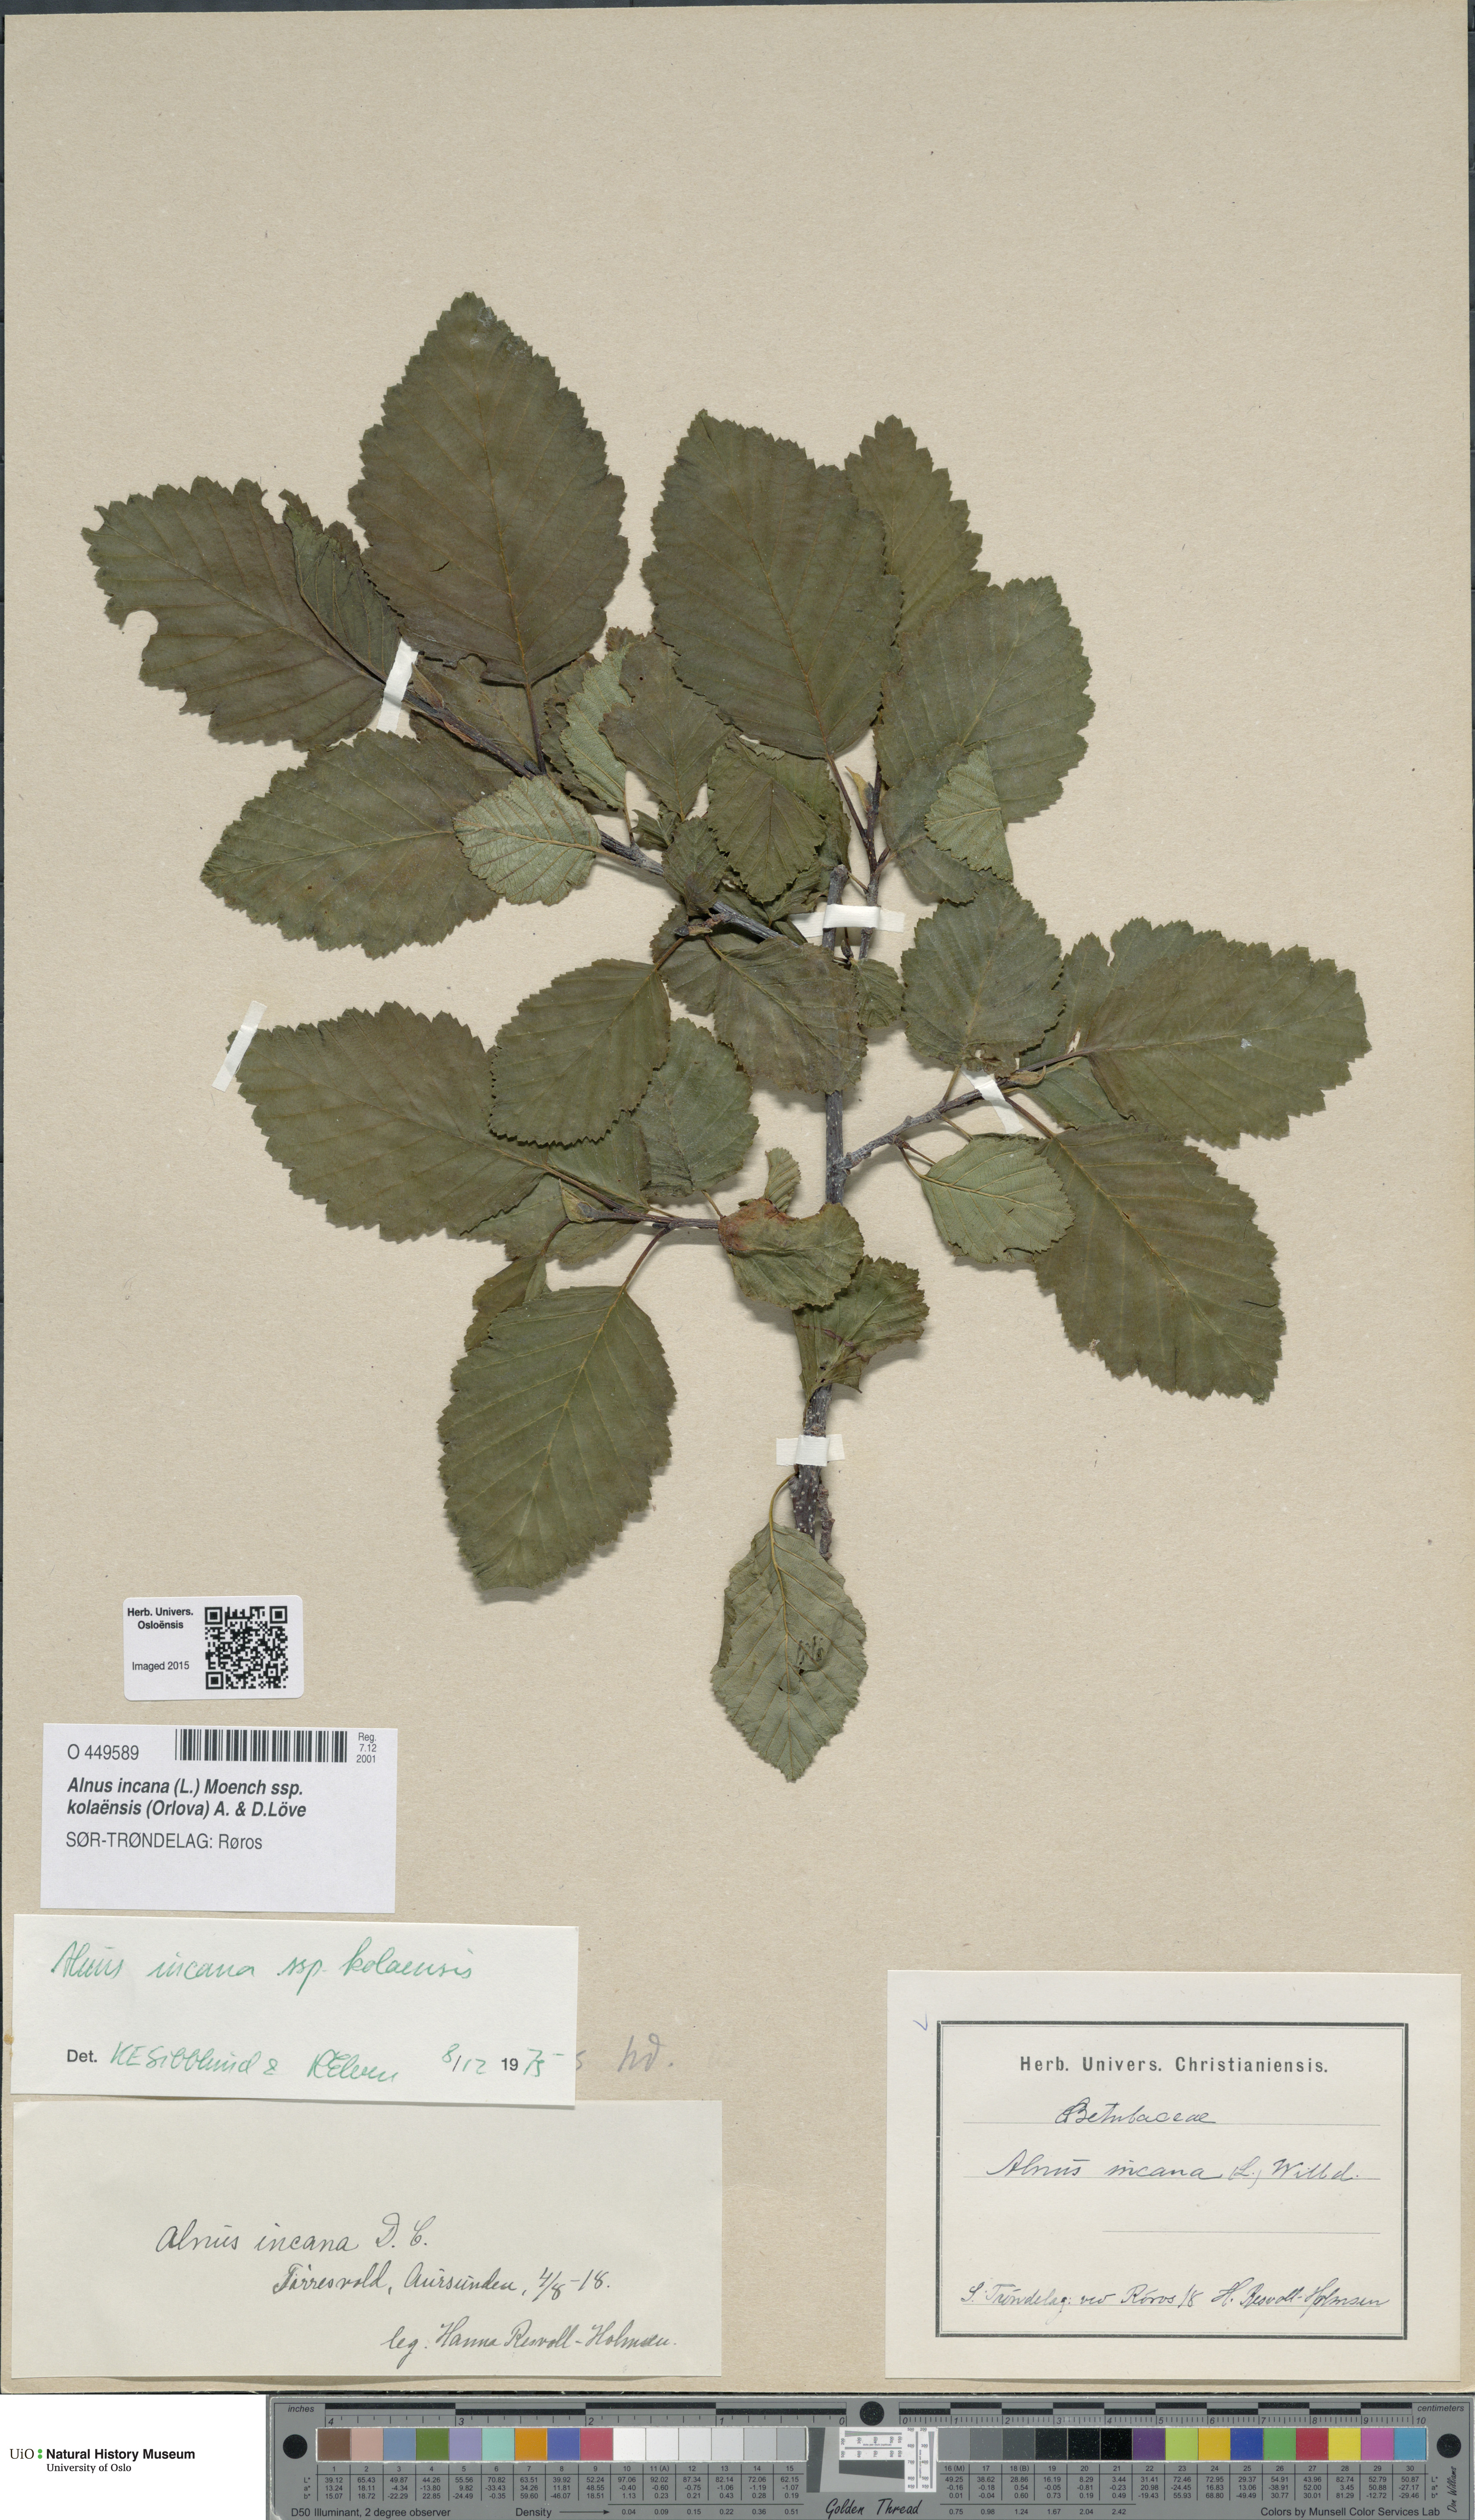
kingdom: Plantae
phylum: Tracheophyta
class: Magnoliopsida
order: Fagales
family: Betulaceae
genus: Alnus
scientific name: Alnus incana
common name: Grey alder
